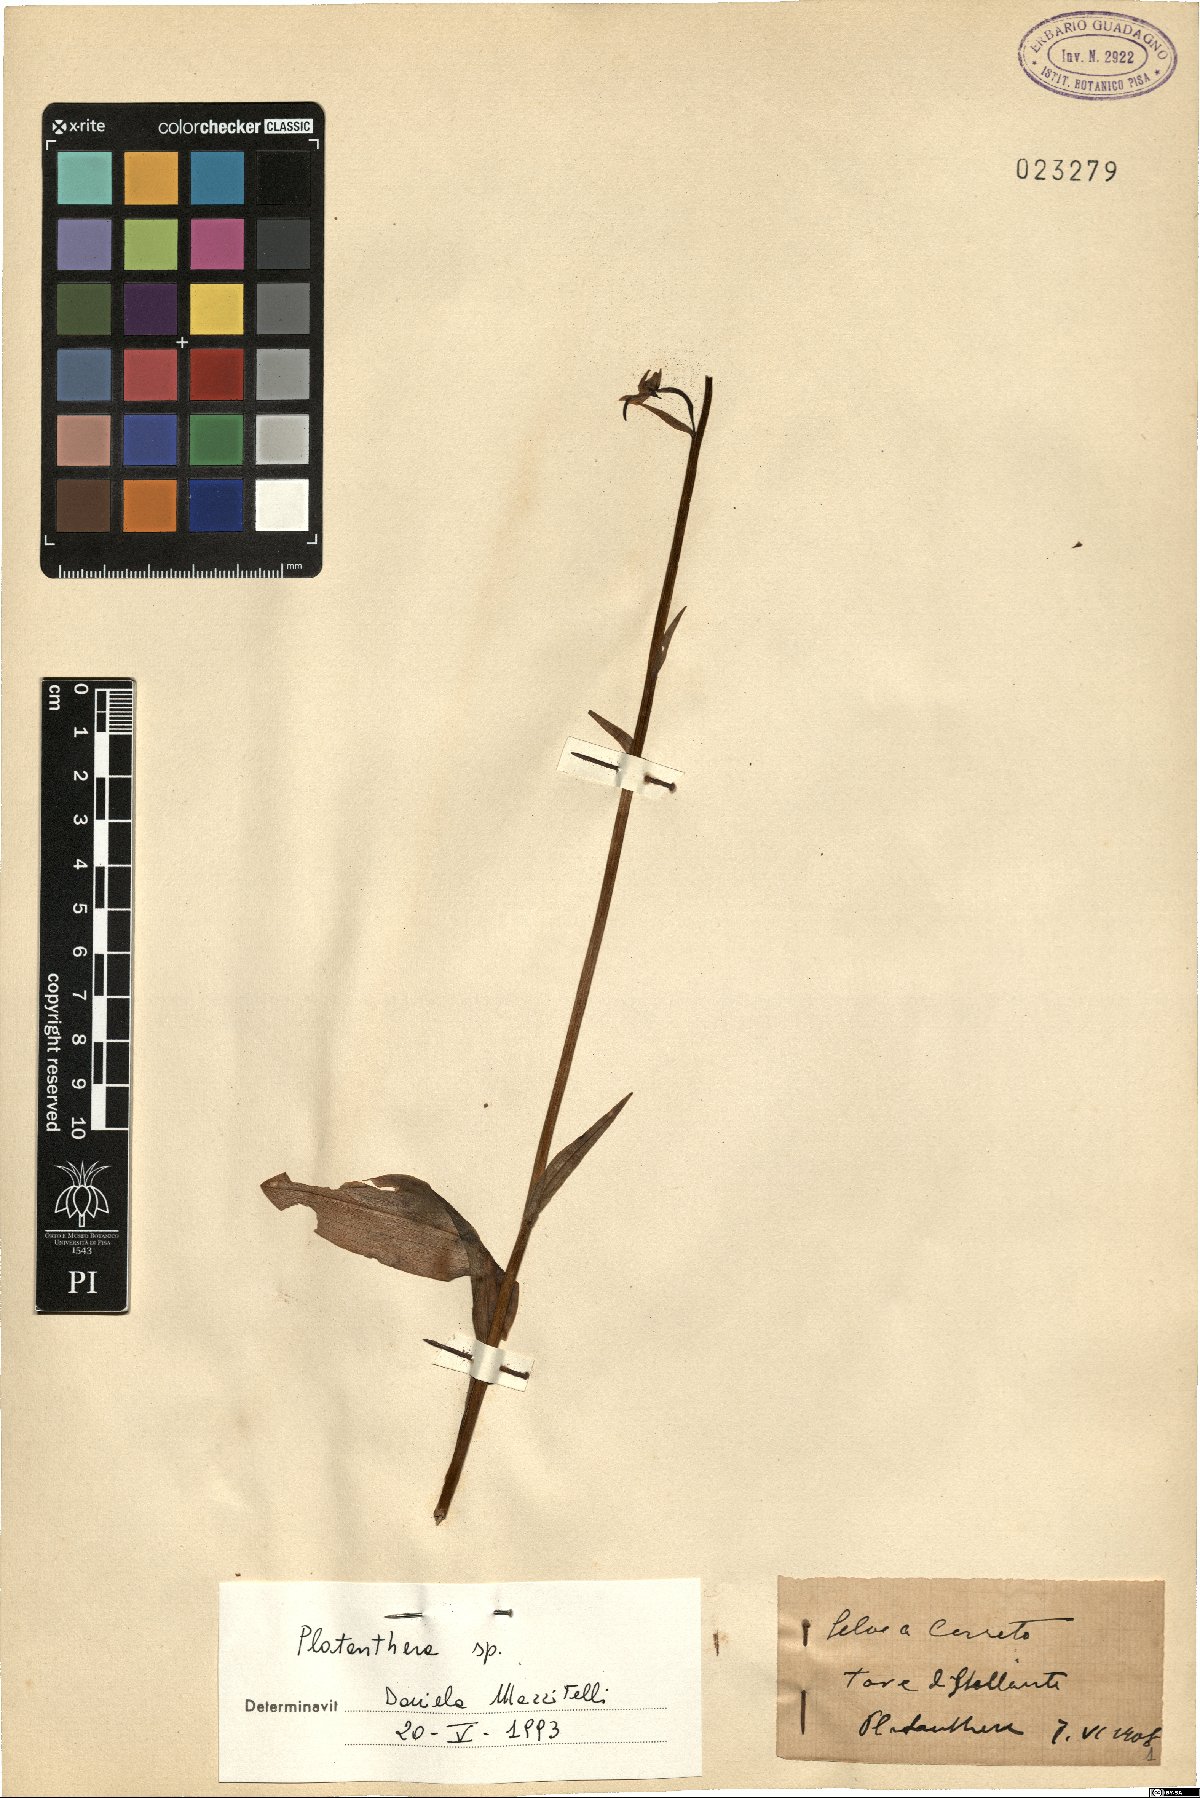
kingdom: Plantae
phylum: Tracheophyta
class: Liliopsida
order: Asparagales
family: Orchidaceae
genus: Platanthera
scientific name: Platanthera chlorantha
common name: Greater butterfly-orchid
